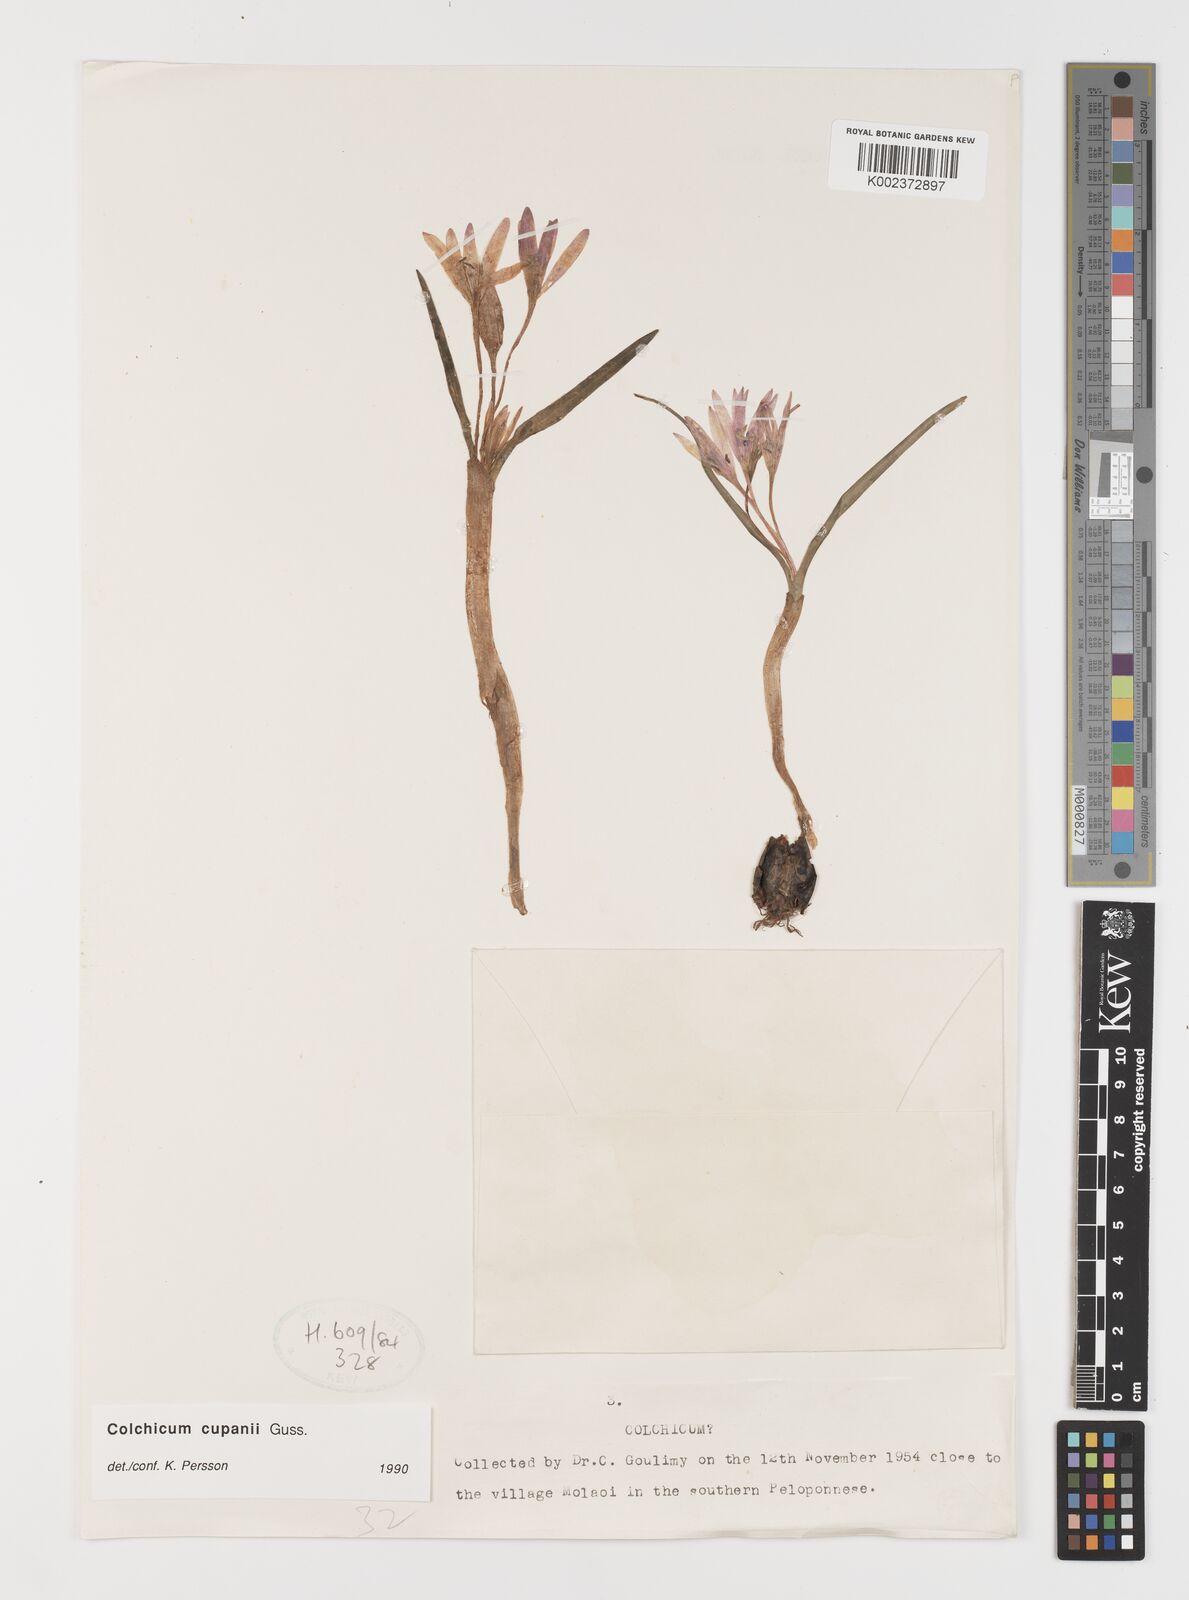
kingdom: Plantae
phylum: Tracheophyta
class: Liliopsida
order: Liliales
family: Colchicaceae
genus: Colchicum
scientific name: Colchicum cupanii
